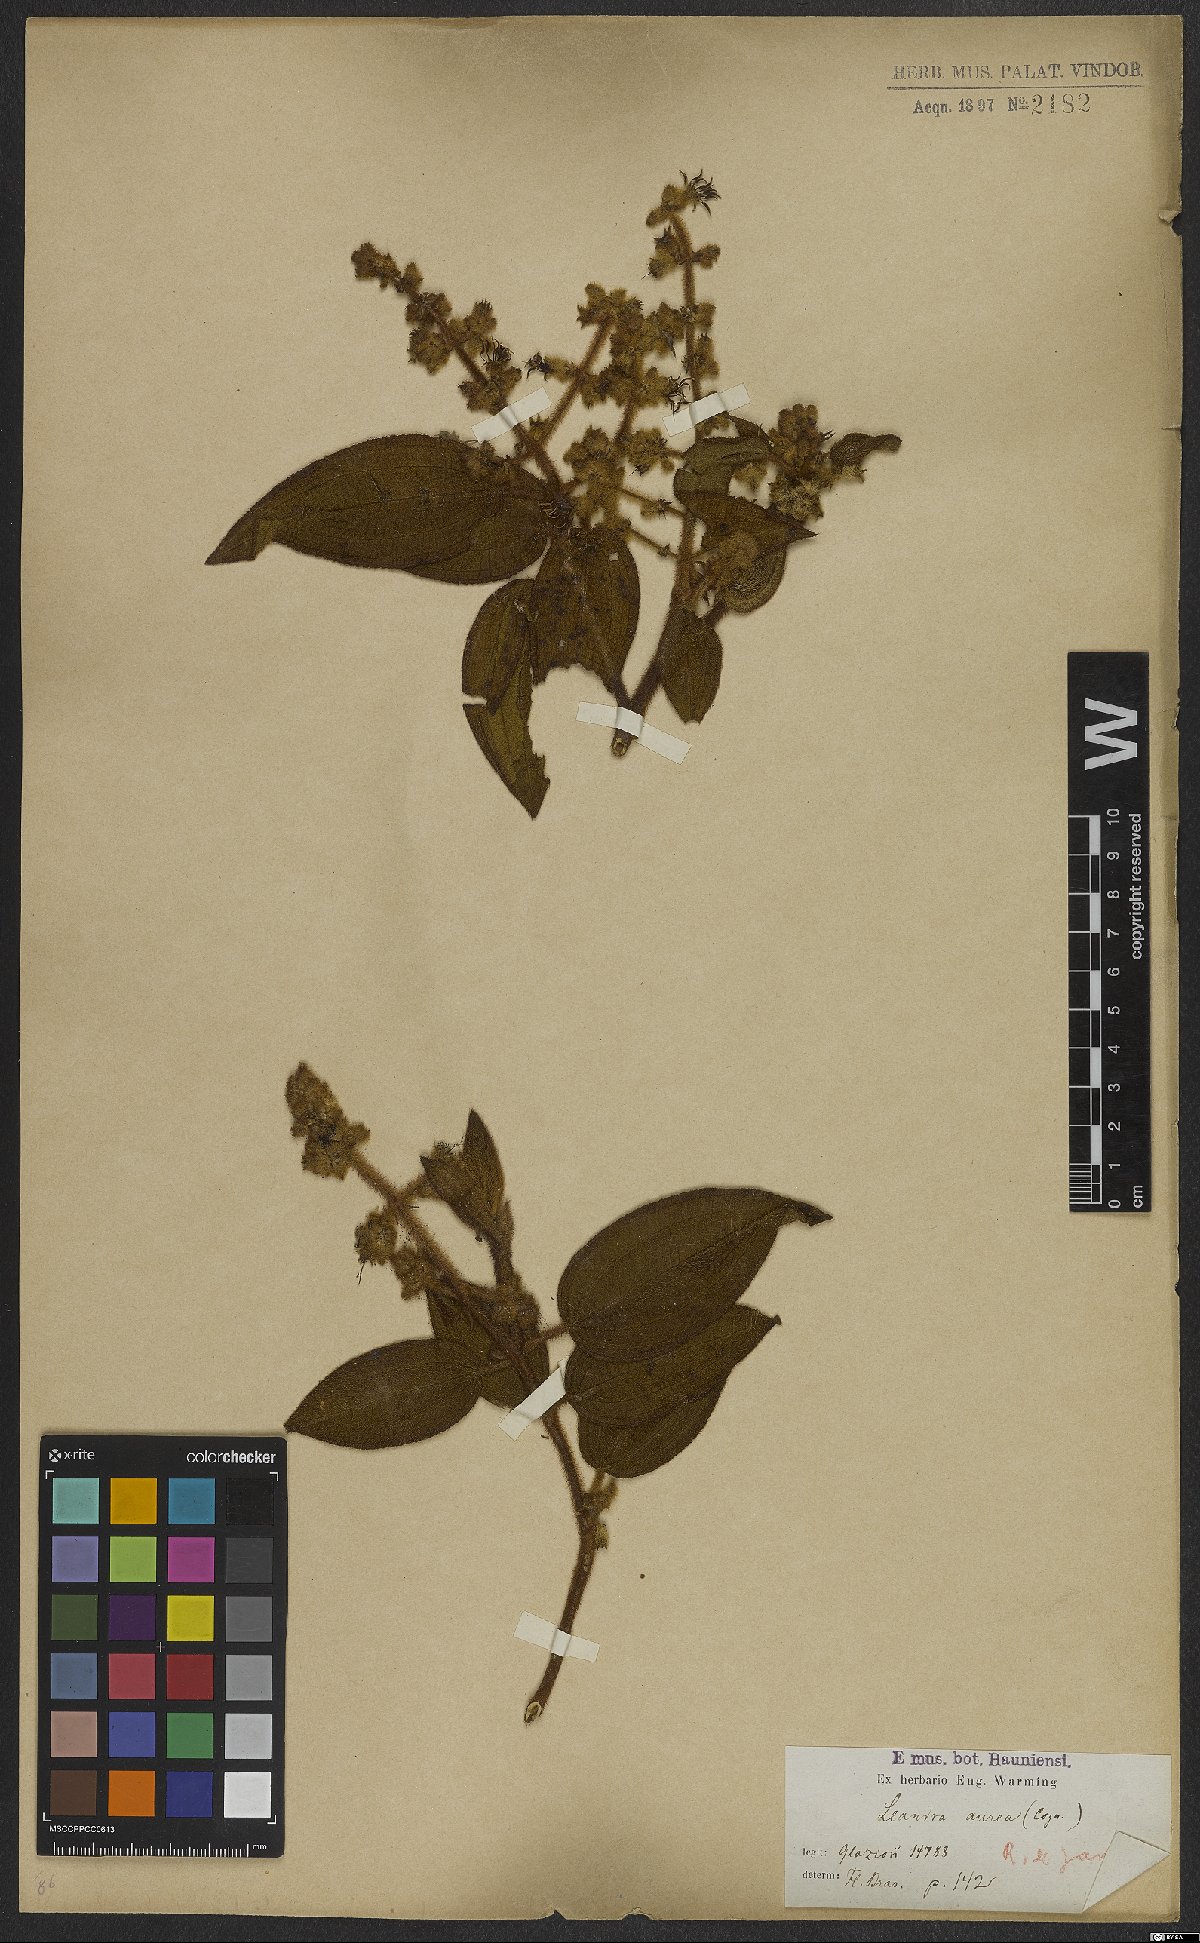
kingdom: Plantae
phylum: Tracheophyta
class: Magnoliopsida
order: Myrtales
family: Melastomataceae
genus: Miconia
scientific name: Miconia auricoma
